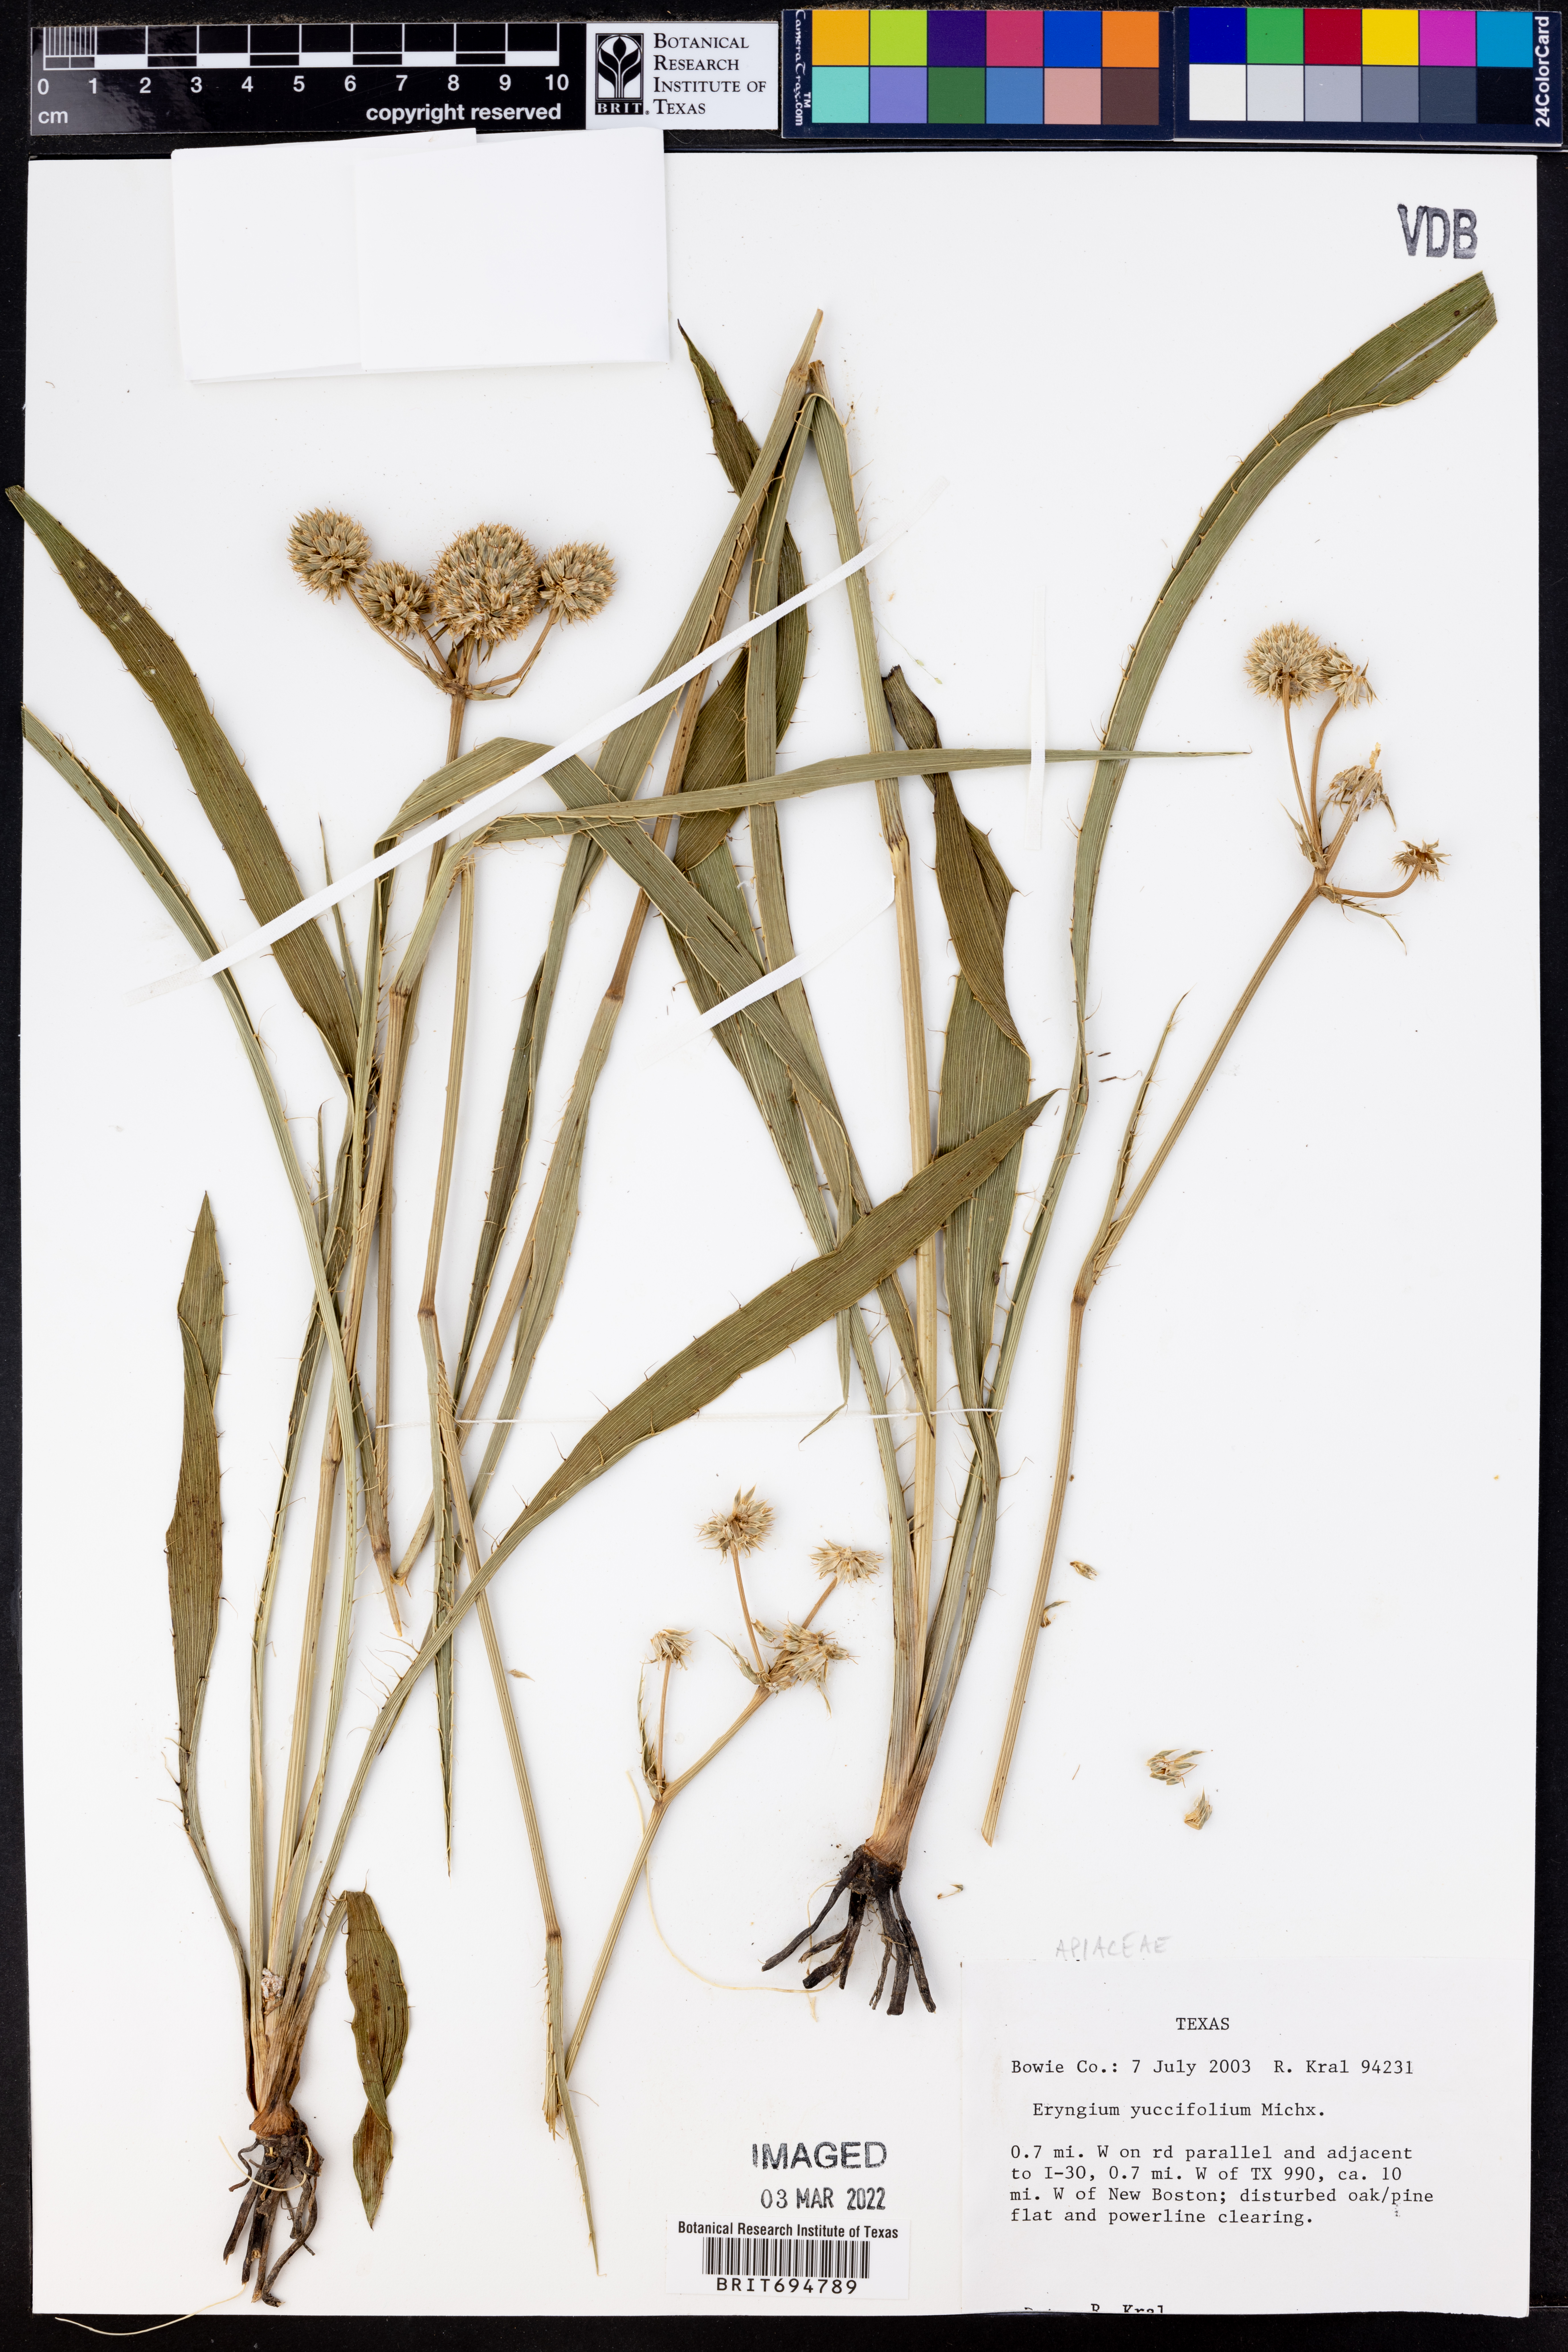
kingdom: Plantae
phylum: Tracheophyta
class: Magnoliopsida
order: Apiales
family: Apiaceae
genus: Eryngium
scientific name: Eryngium yuccifolium
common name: Button eryngo
